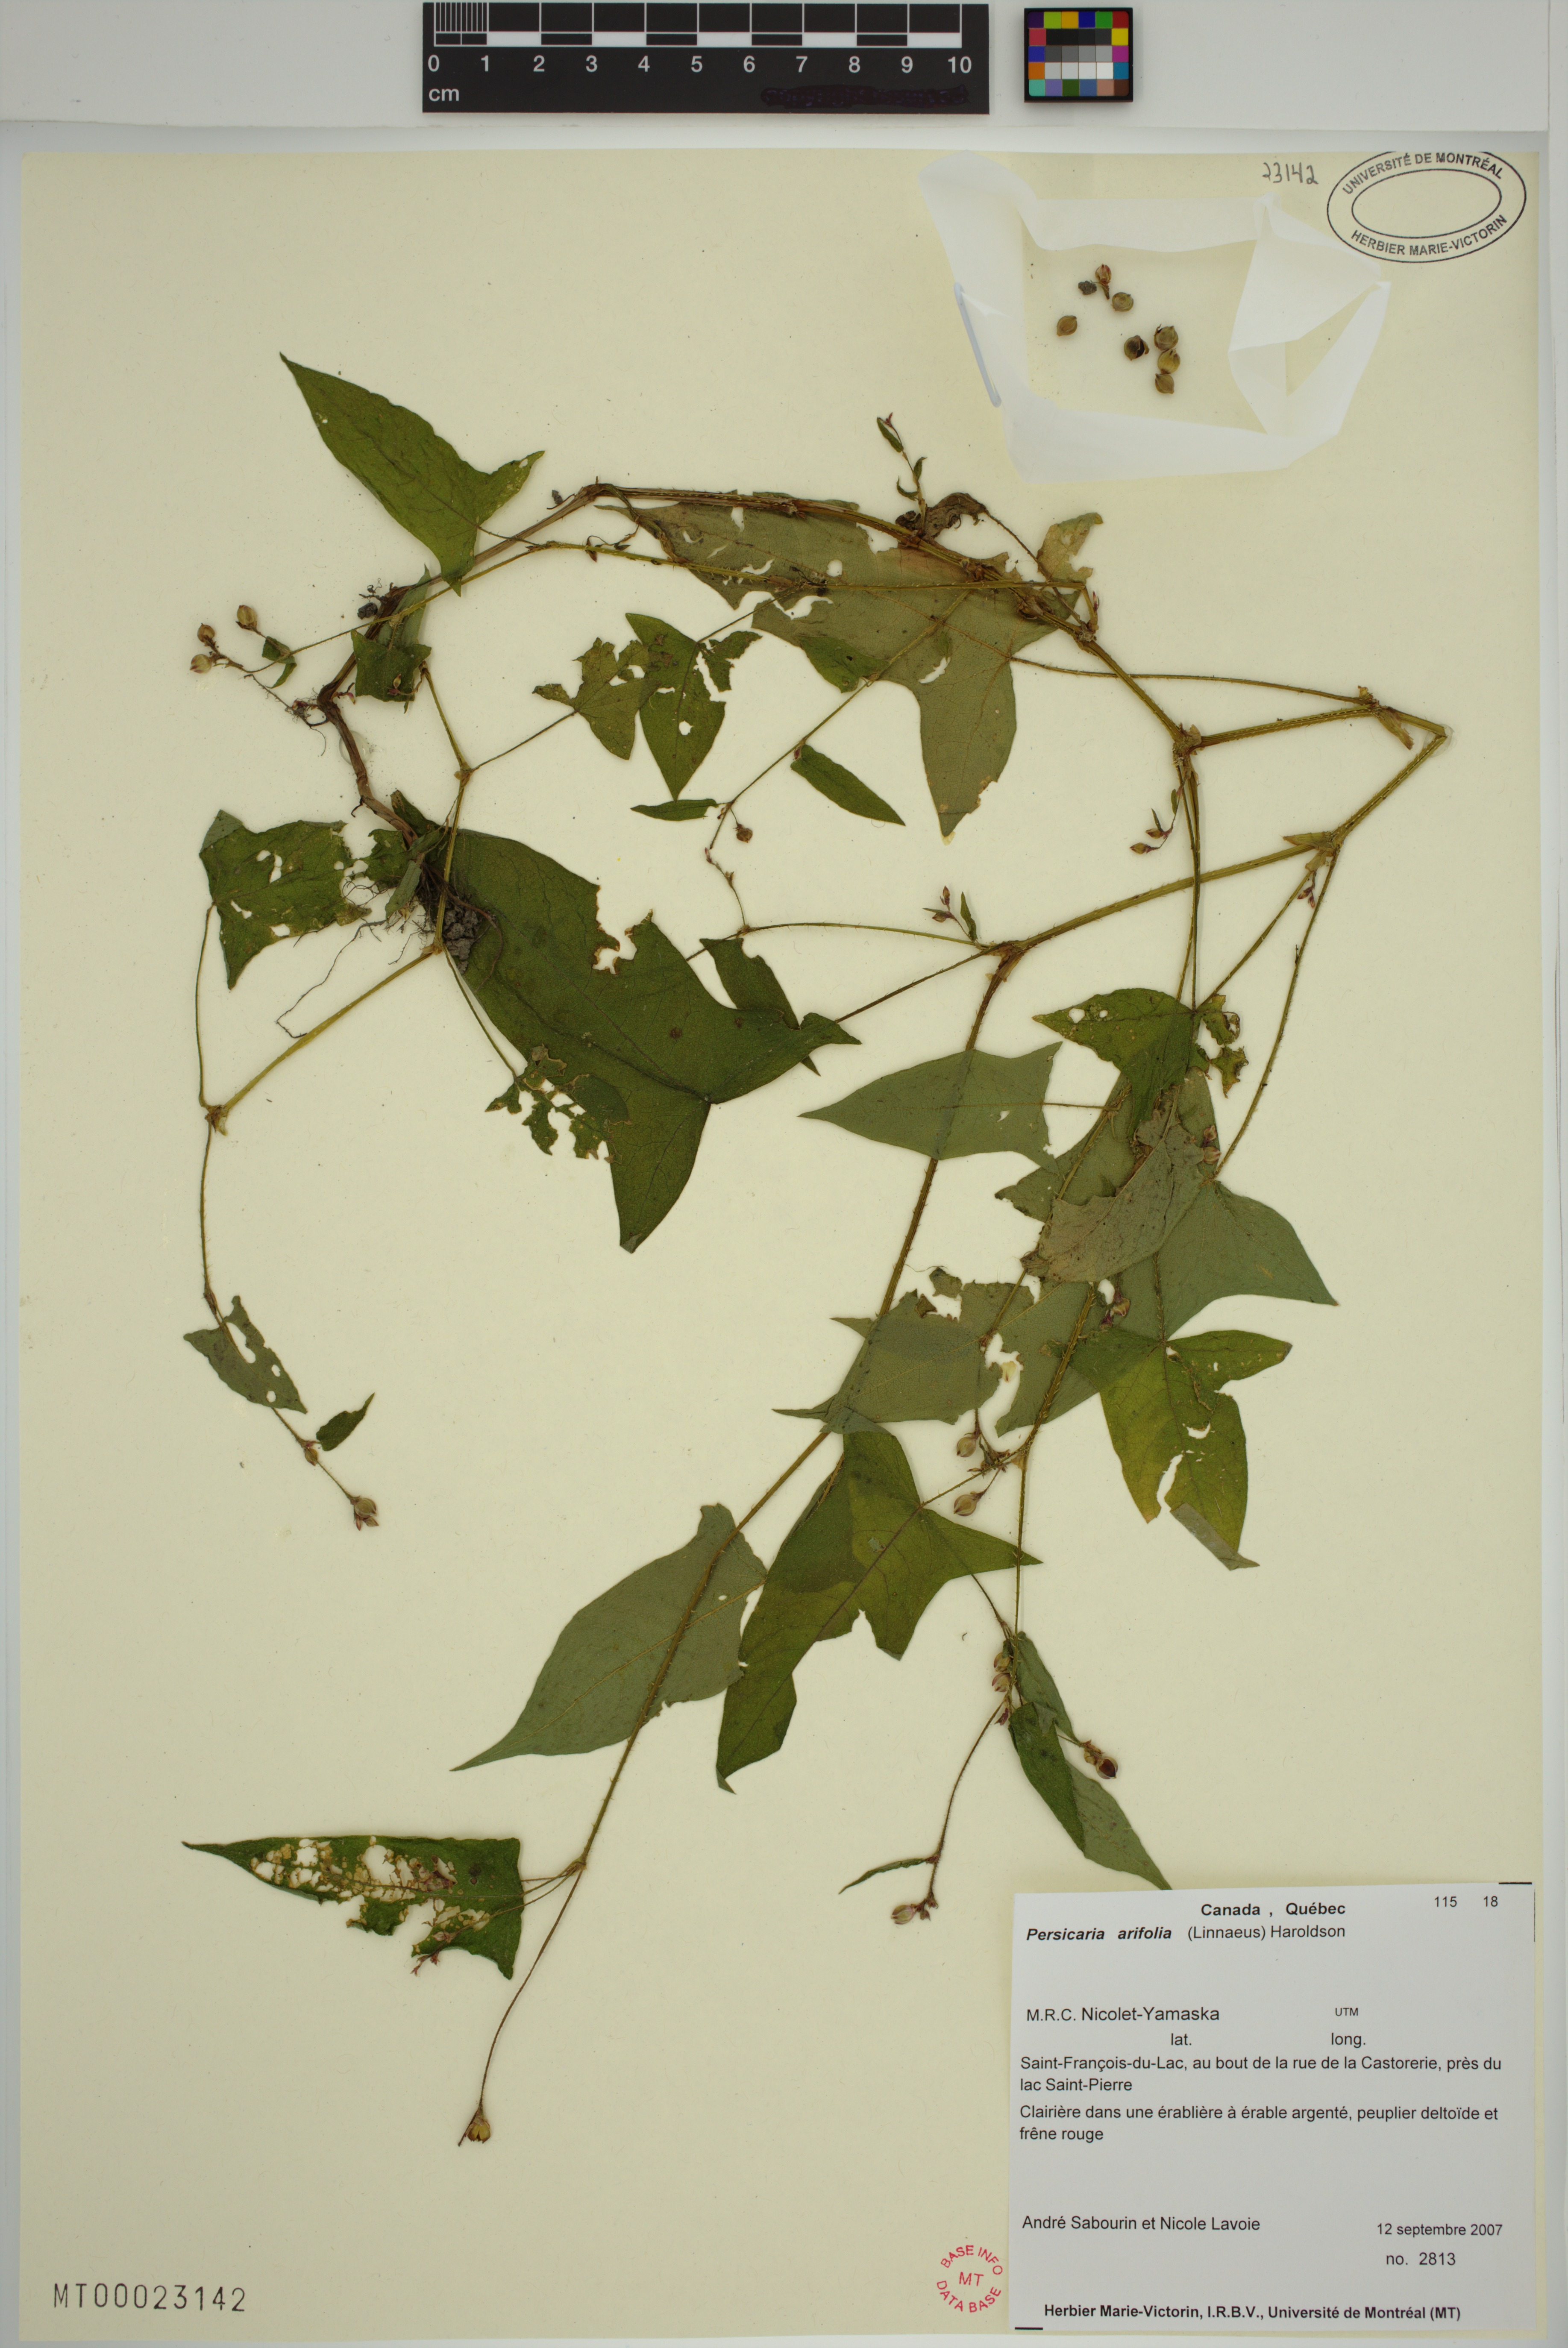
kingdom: Plantae
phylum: Tracheophyta
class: Magnoliopsida
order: Caryophyllales
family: Polygonaceae
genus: Persicaria
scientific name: Persicaria arifolia
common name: Halberd-leaved tear-thumb
